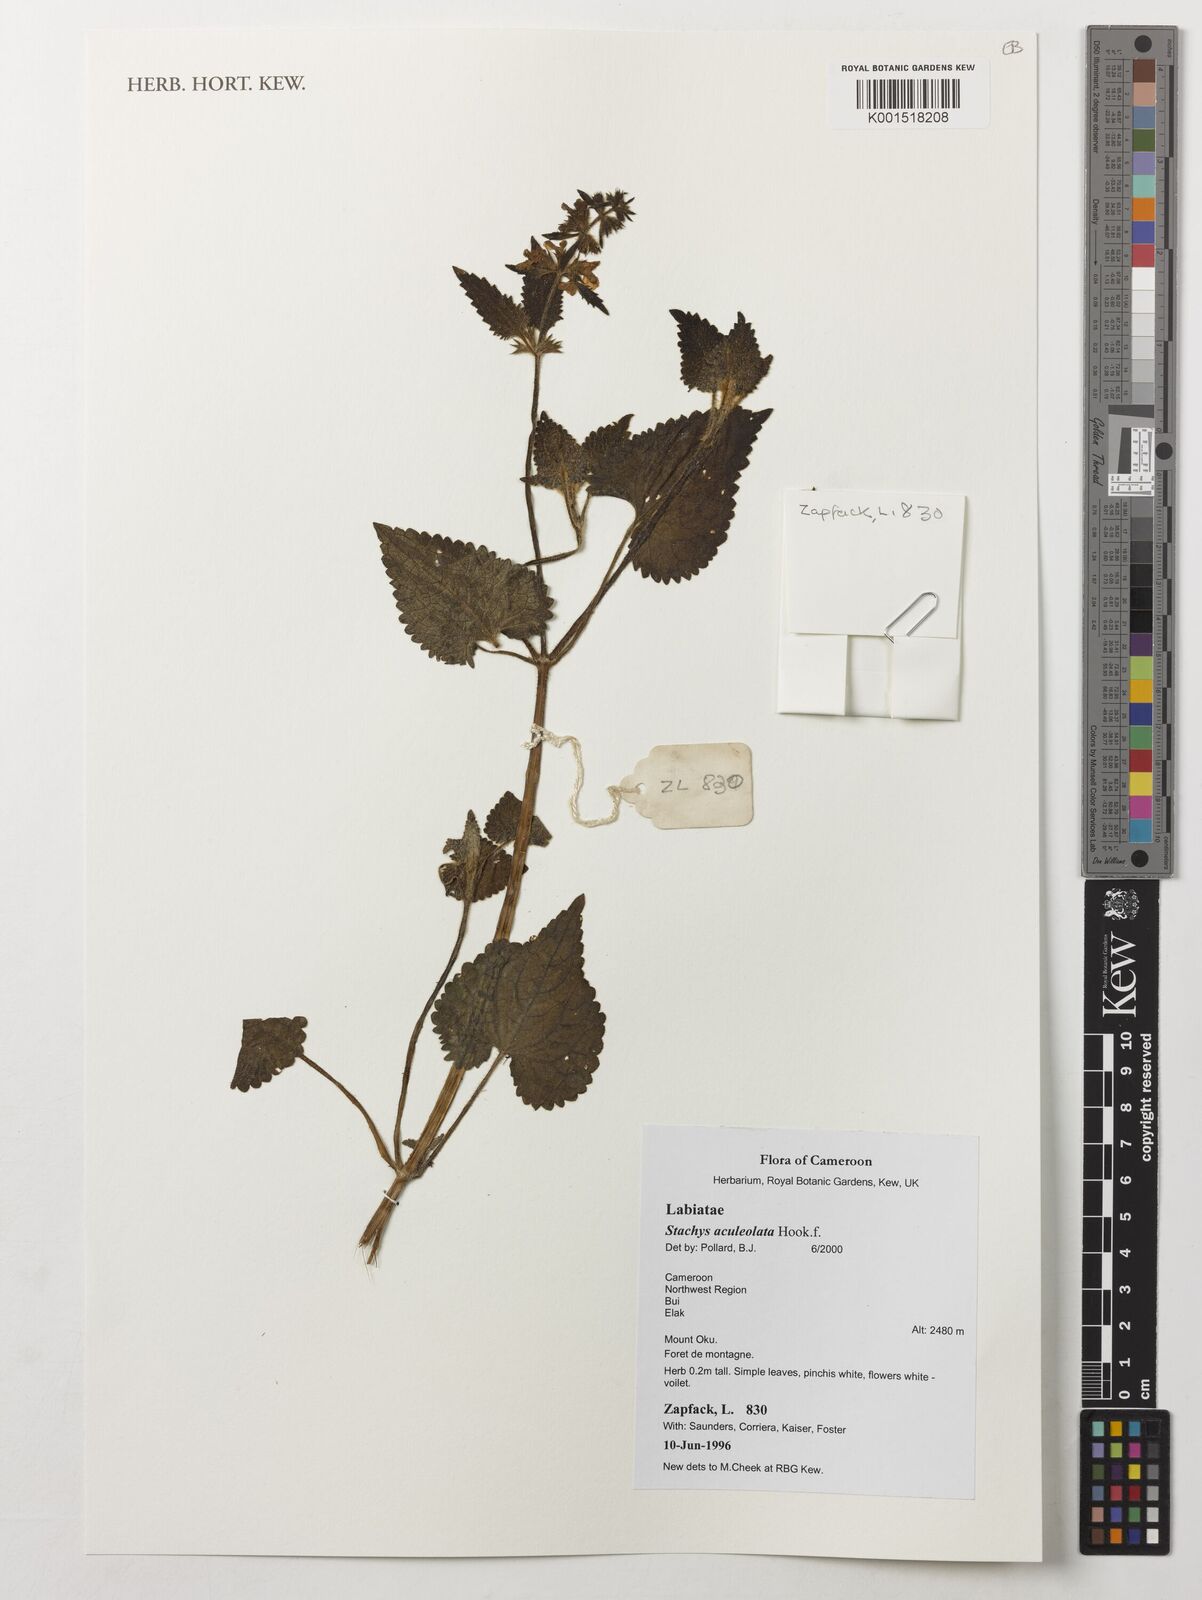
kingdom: Plantae
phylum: Tracheophyta
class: Magnoliopsida
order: Lamiales
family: Lamiaceae
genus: Stachys
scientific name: Stachys aculeolata
